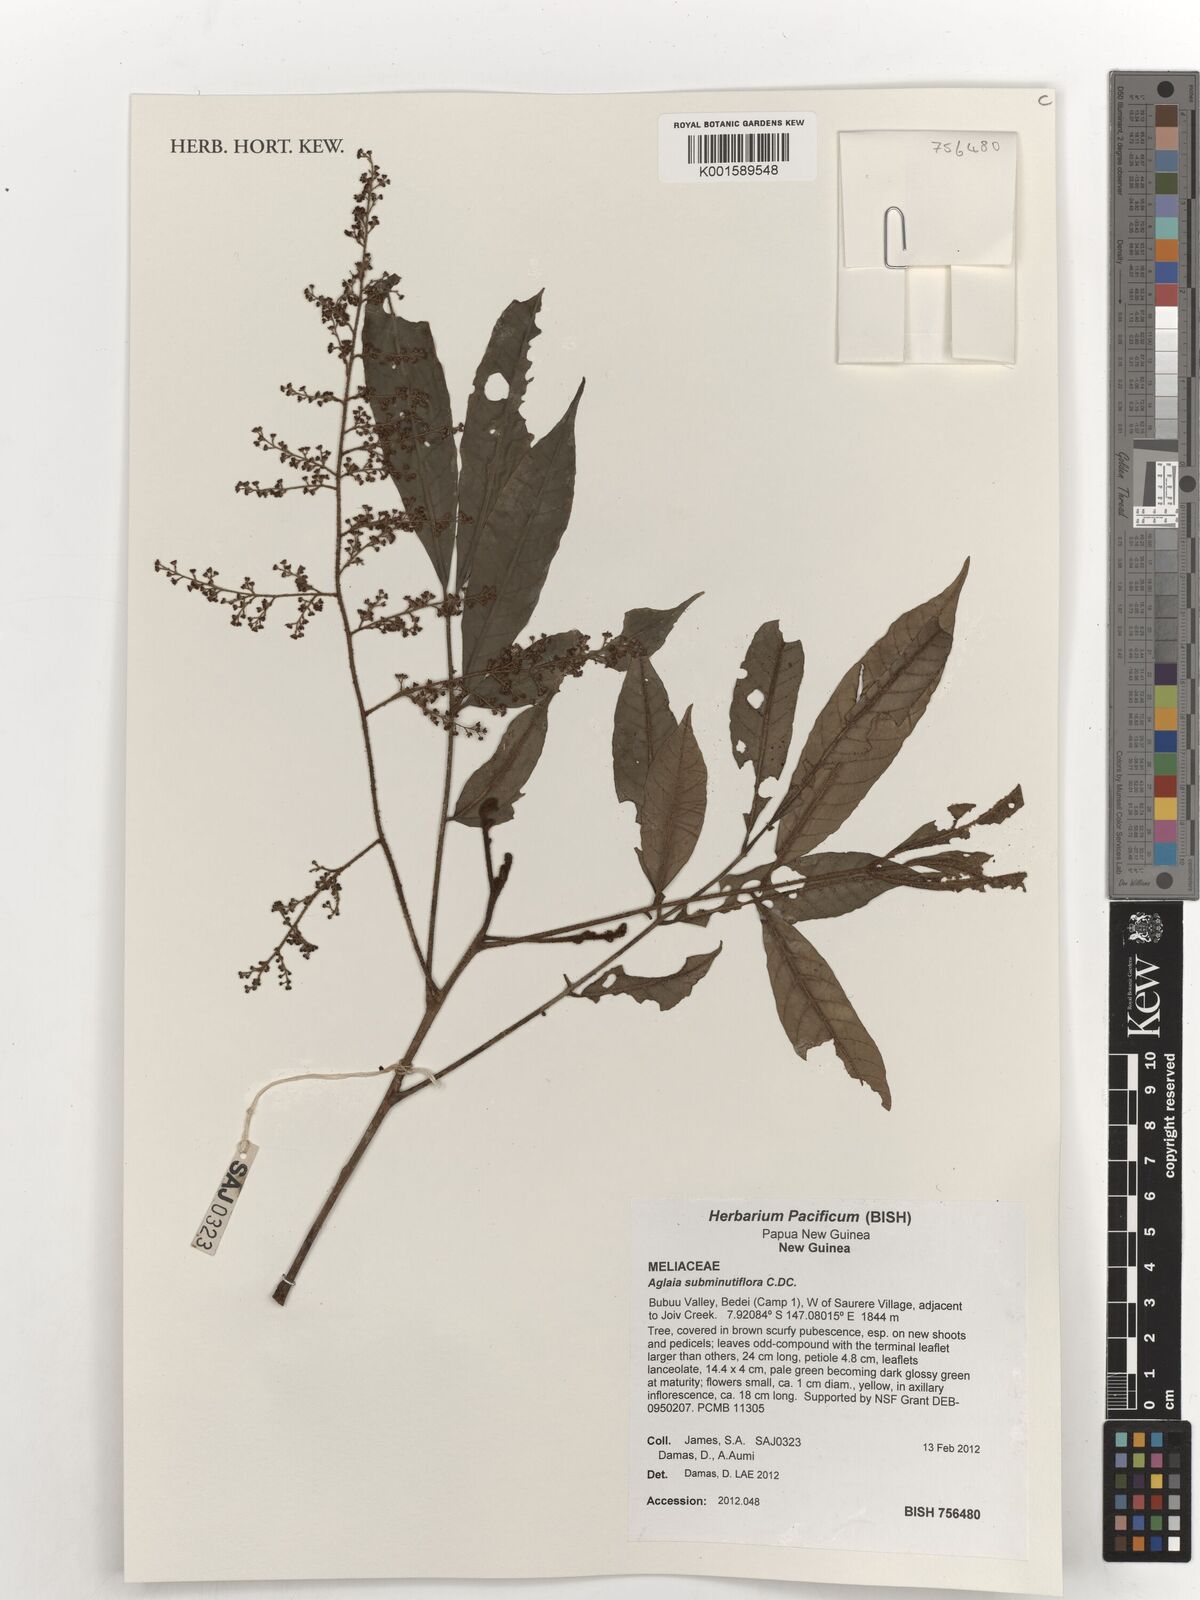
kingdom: Plantae
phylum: Tracheophyta
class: Magnoliopsida
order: Sapindales
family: Meliaceae
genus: Aglaia
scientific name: Aglaia subminutiflora
